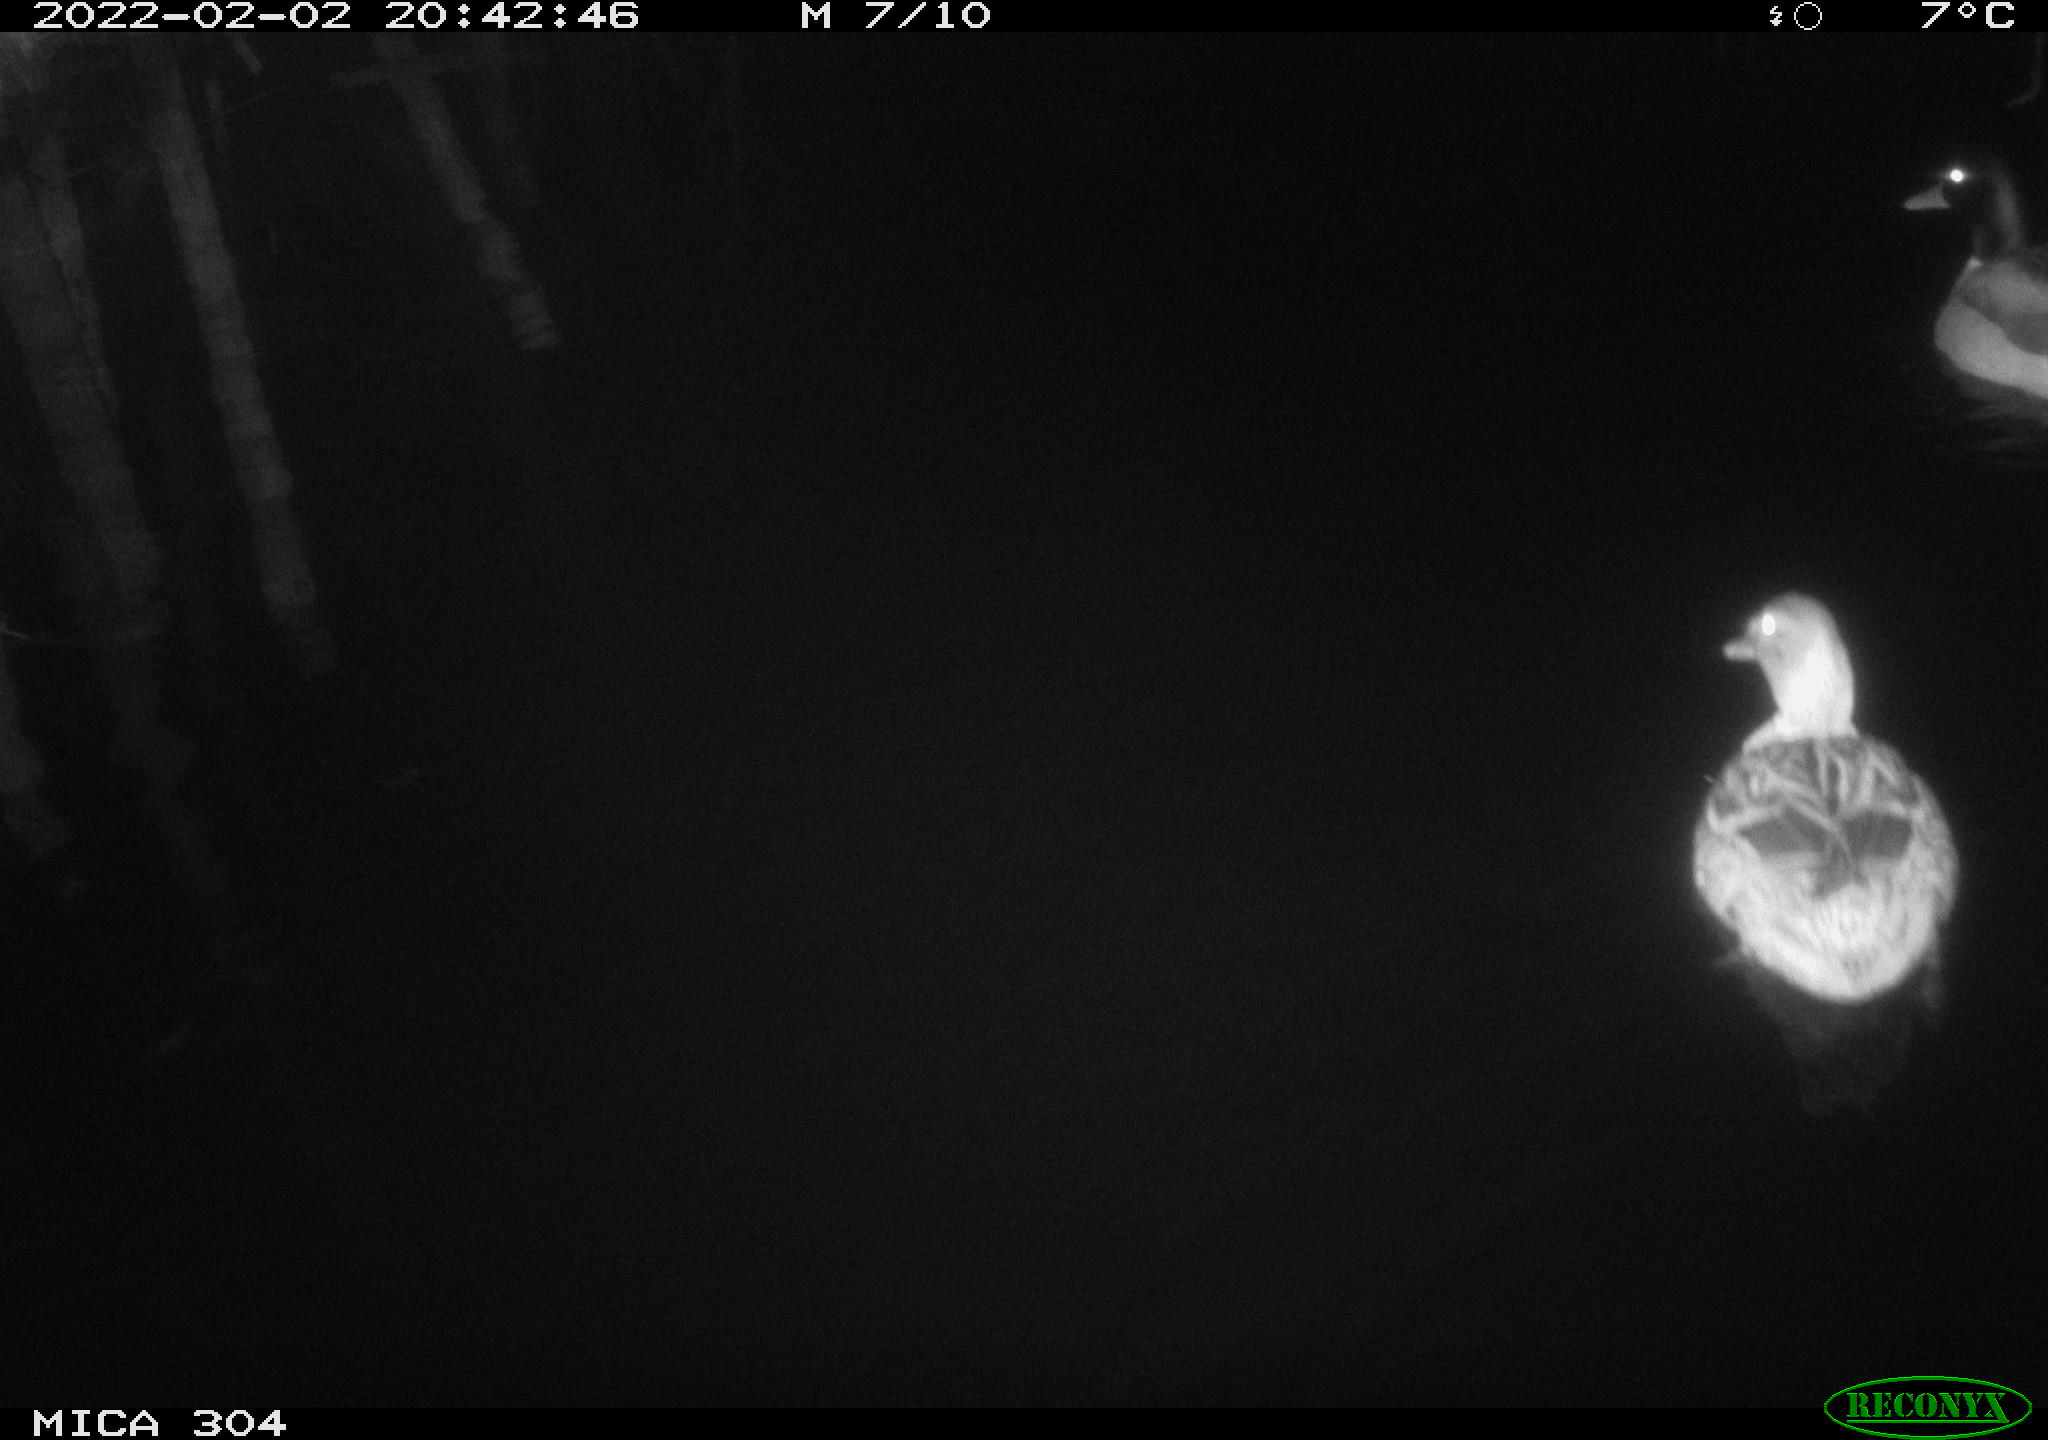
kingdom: Animalia
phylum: Chordata
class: Aves
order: Anseriformes
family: Anatidae
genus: Anas
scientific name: Anas
